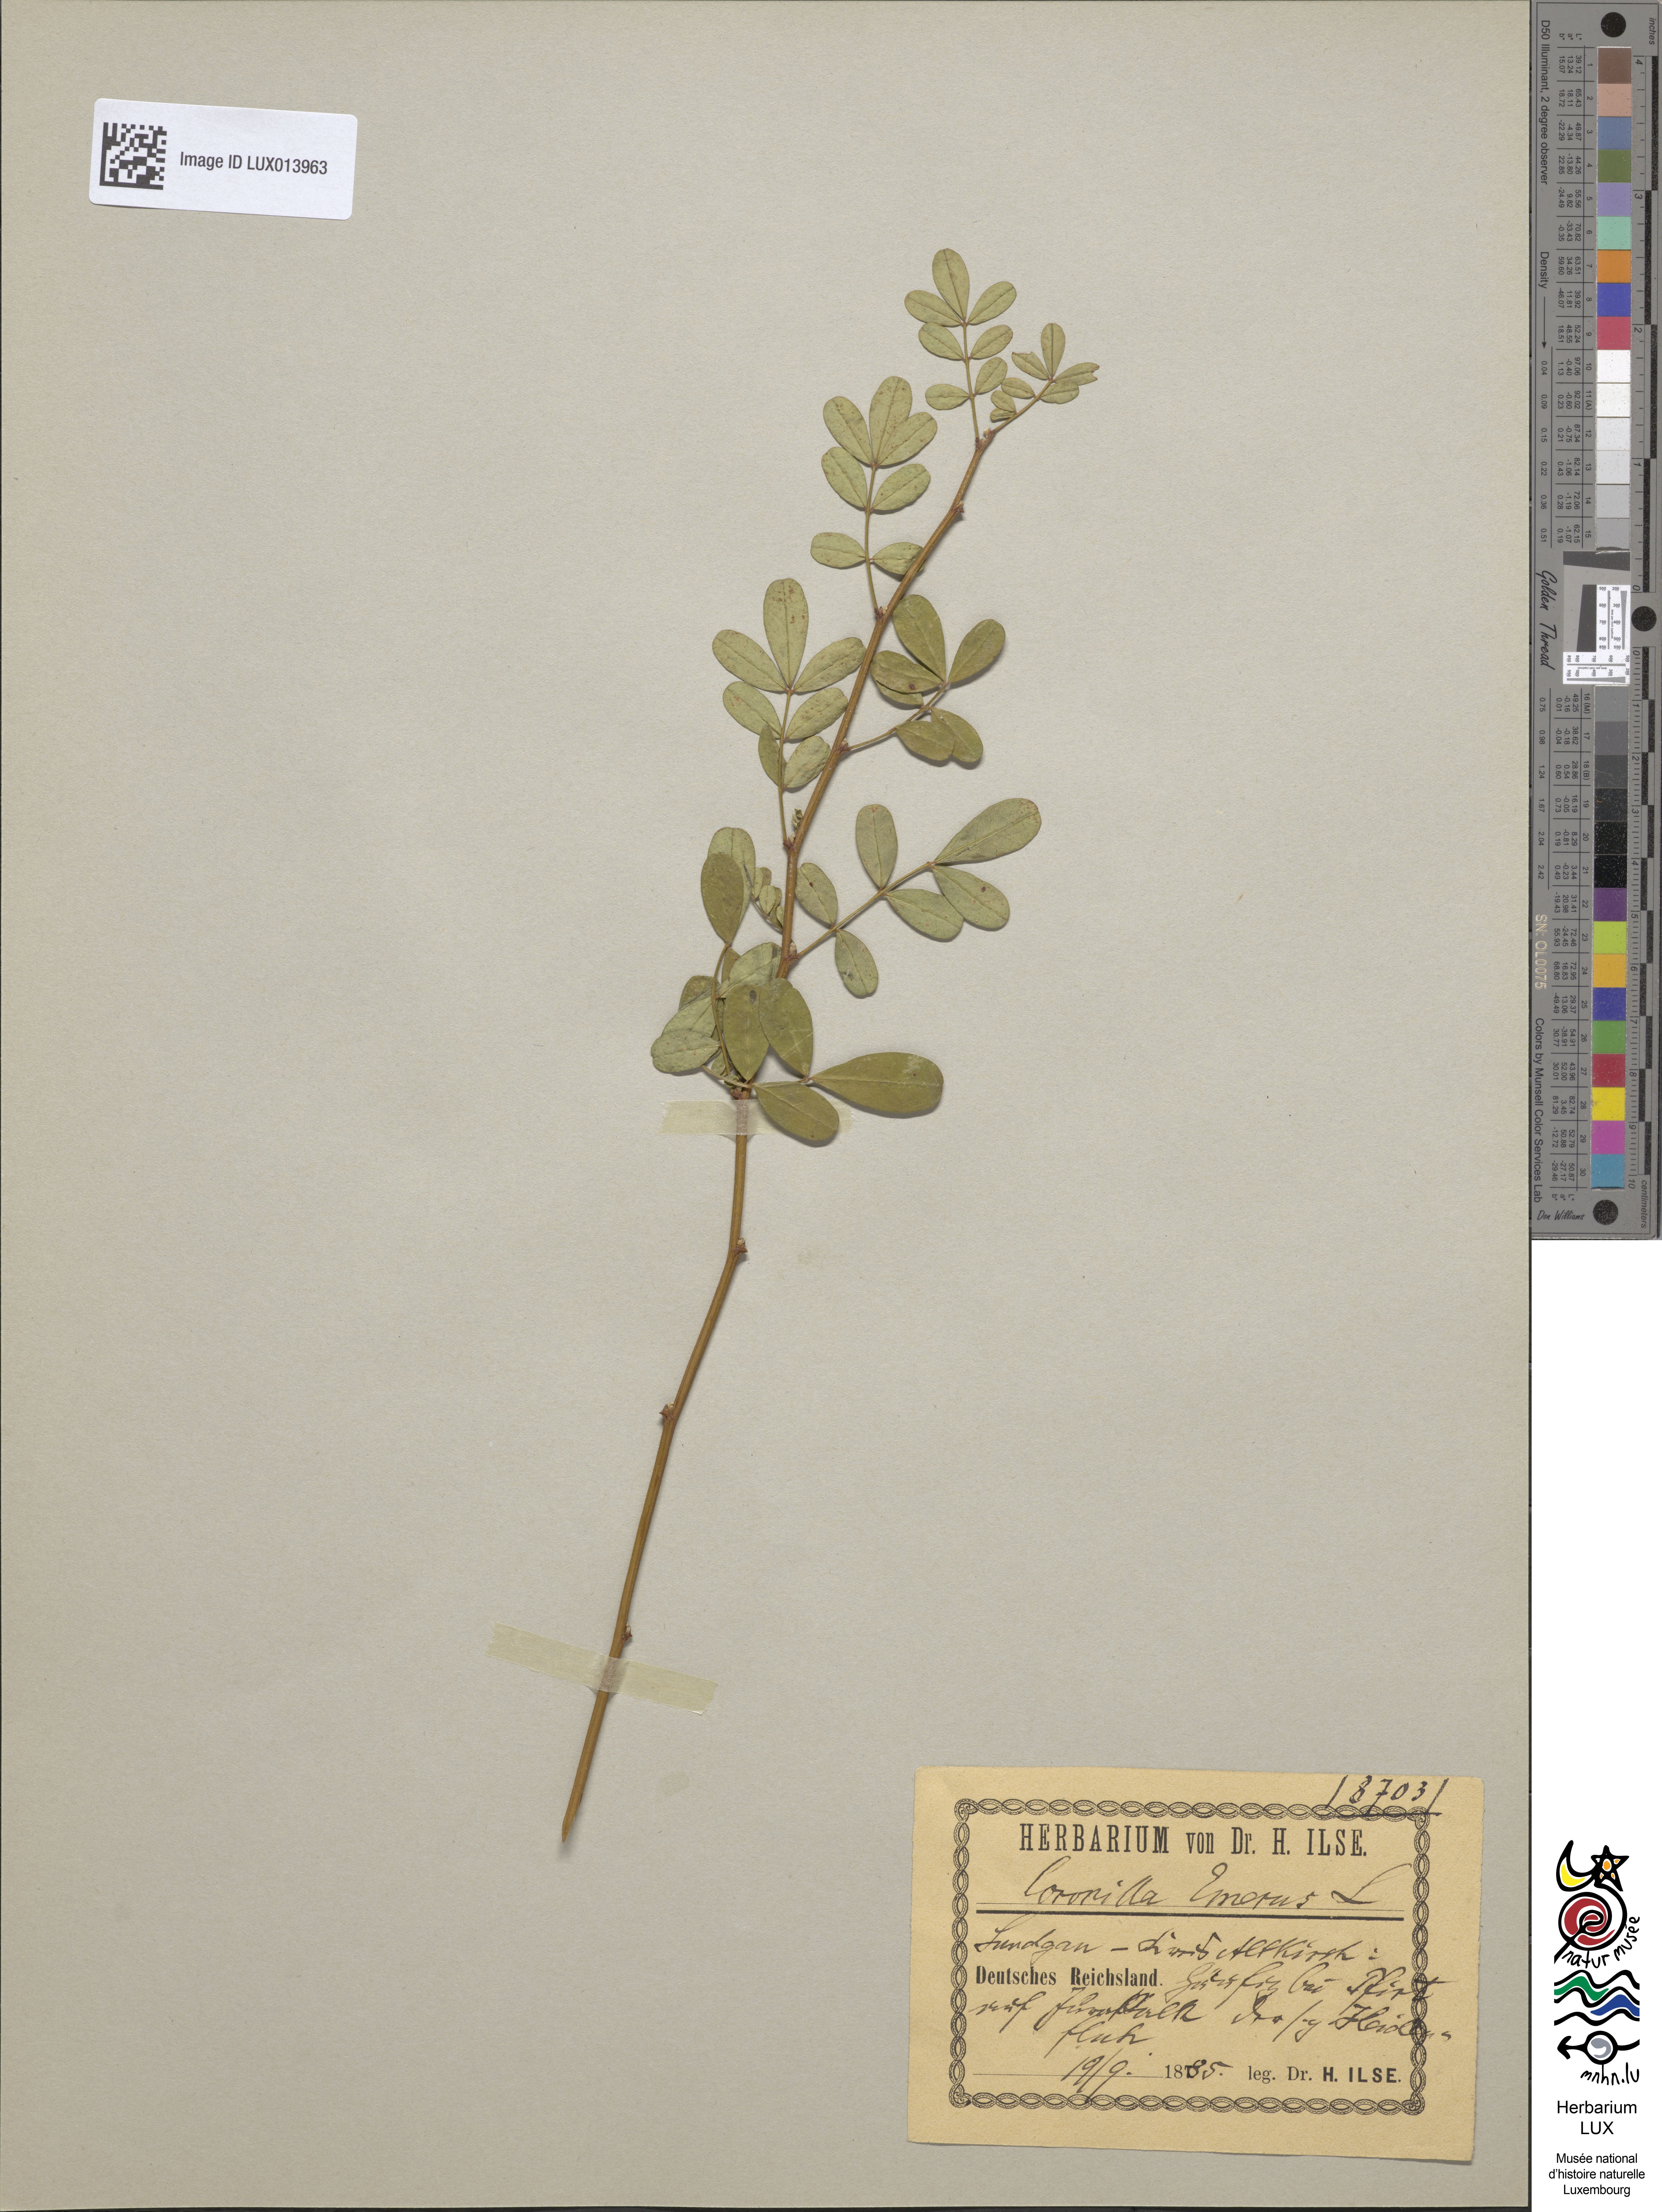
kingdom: Plantae
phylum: Tracheophyta
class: Magnoliopsida
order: Fabales
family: Fabaceae
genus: Hippocrepis
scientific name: Hippocrepis emerus
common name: Scorpion senna
